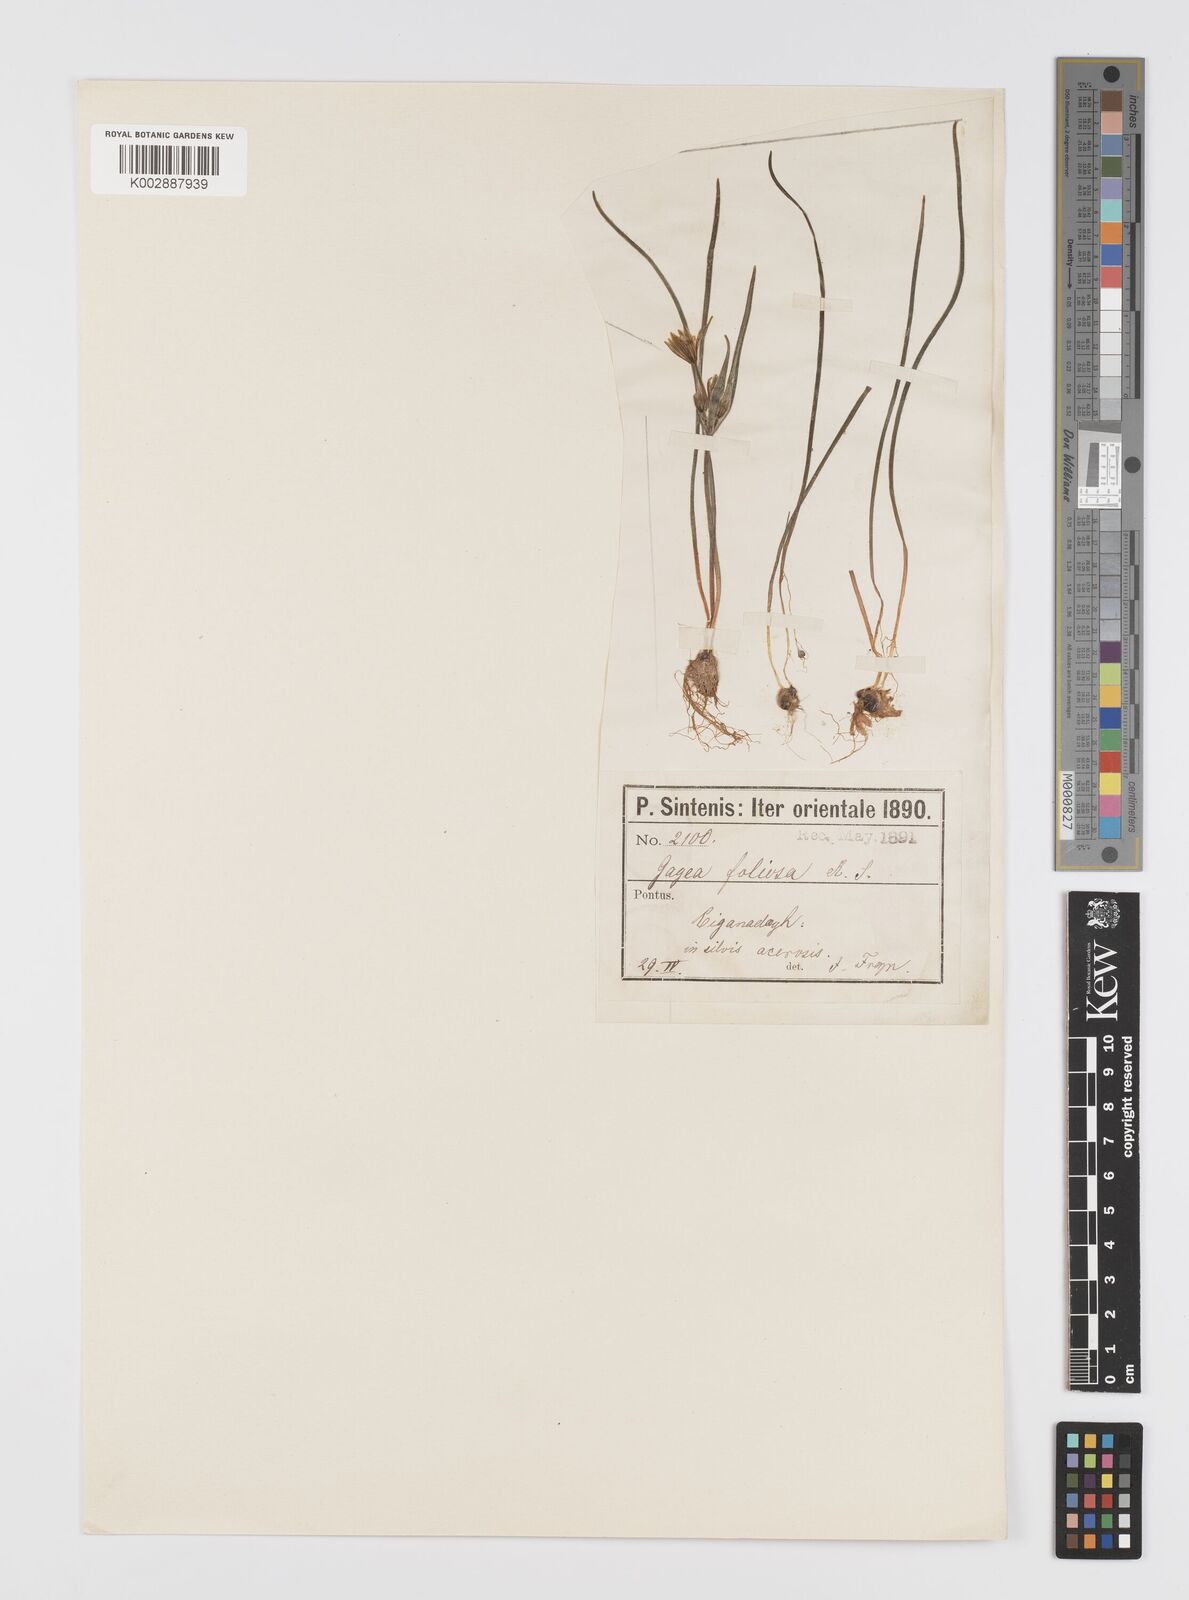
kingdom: Plantae
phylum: Tracheophyta
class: Liliopsida
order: Liliales
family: Liliaceae
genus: Gagea
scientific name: Gagea dubia
